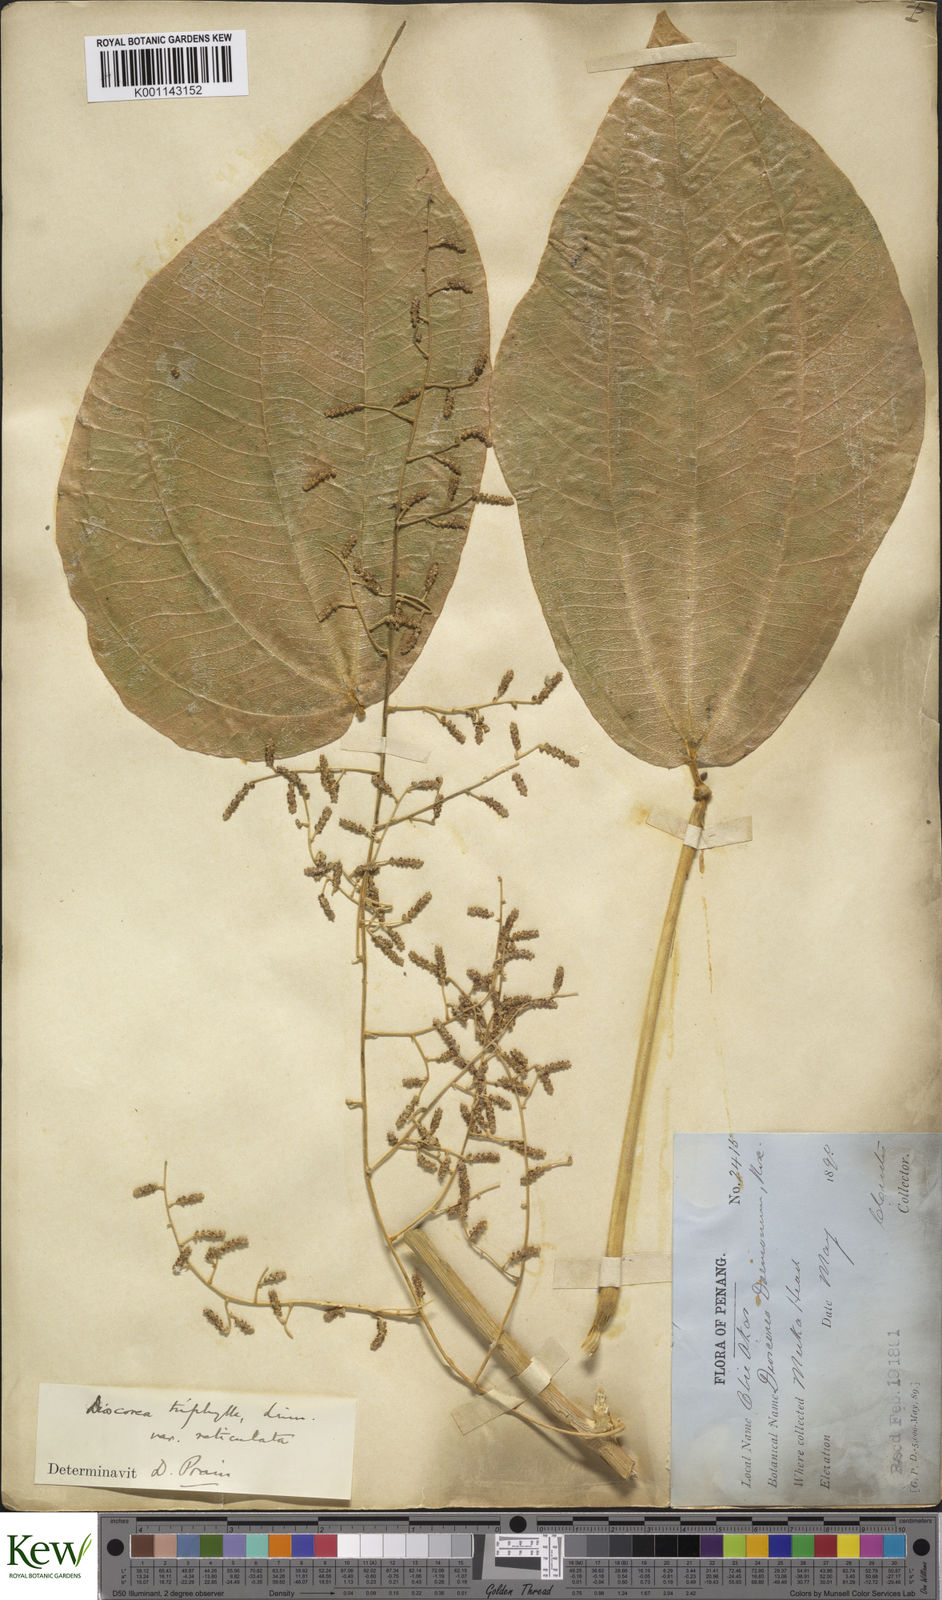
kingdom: Plantae
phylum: Tracheophyta
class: Liliopsida
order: Dioscoreales
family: Dioscoreaceae
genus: Dioscorea
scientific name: Dioscorea hispida
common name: Asiatic bitter yam
